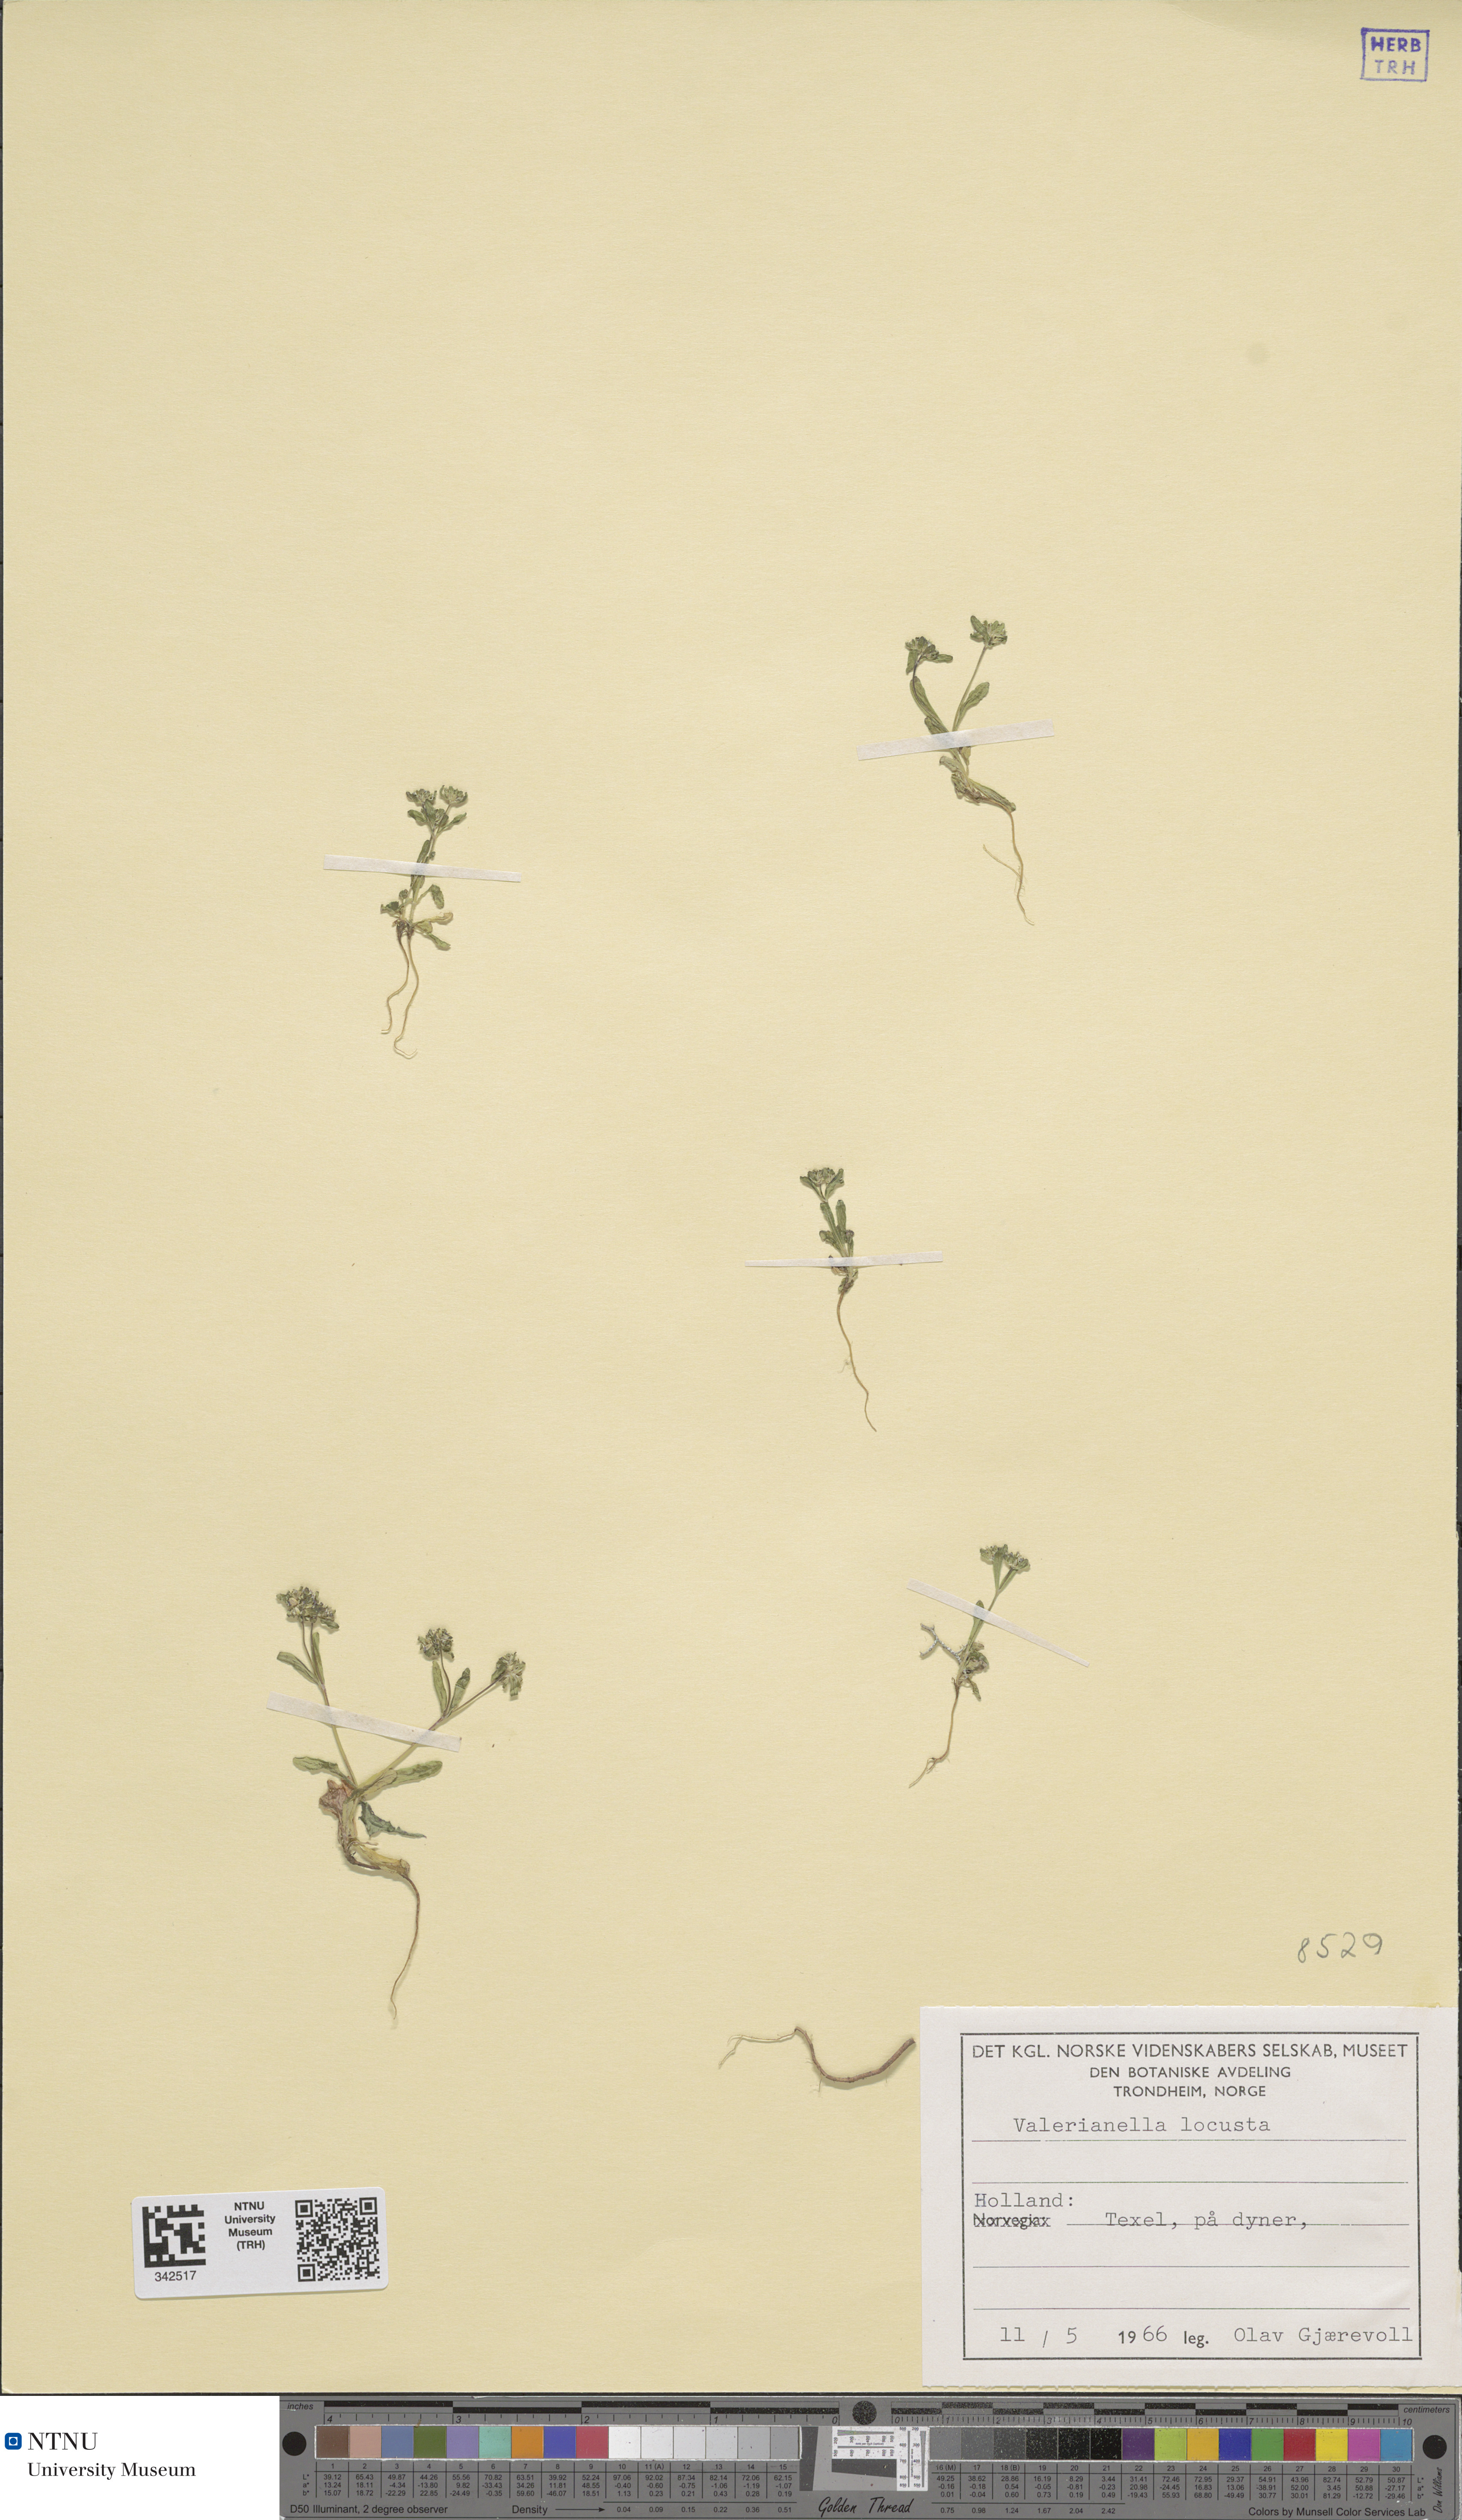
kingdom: Plantae
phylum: Tracheophyta
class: Magnoliopsida
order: Dipsacales
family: Caprifoliaceae
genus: Valerianella
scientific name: Valerianella locusta
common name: Common cornsalad
